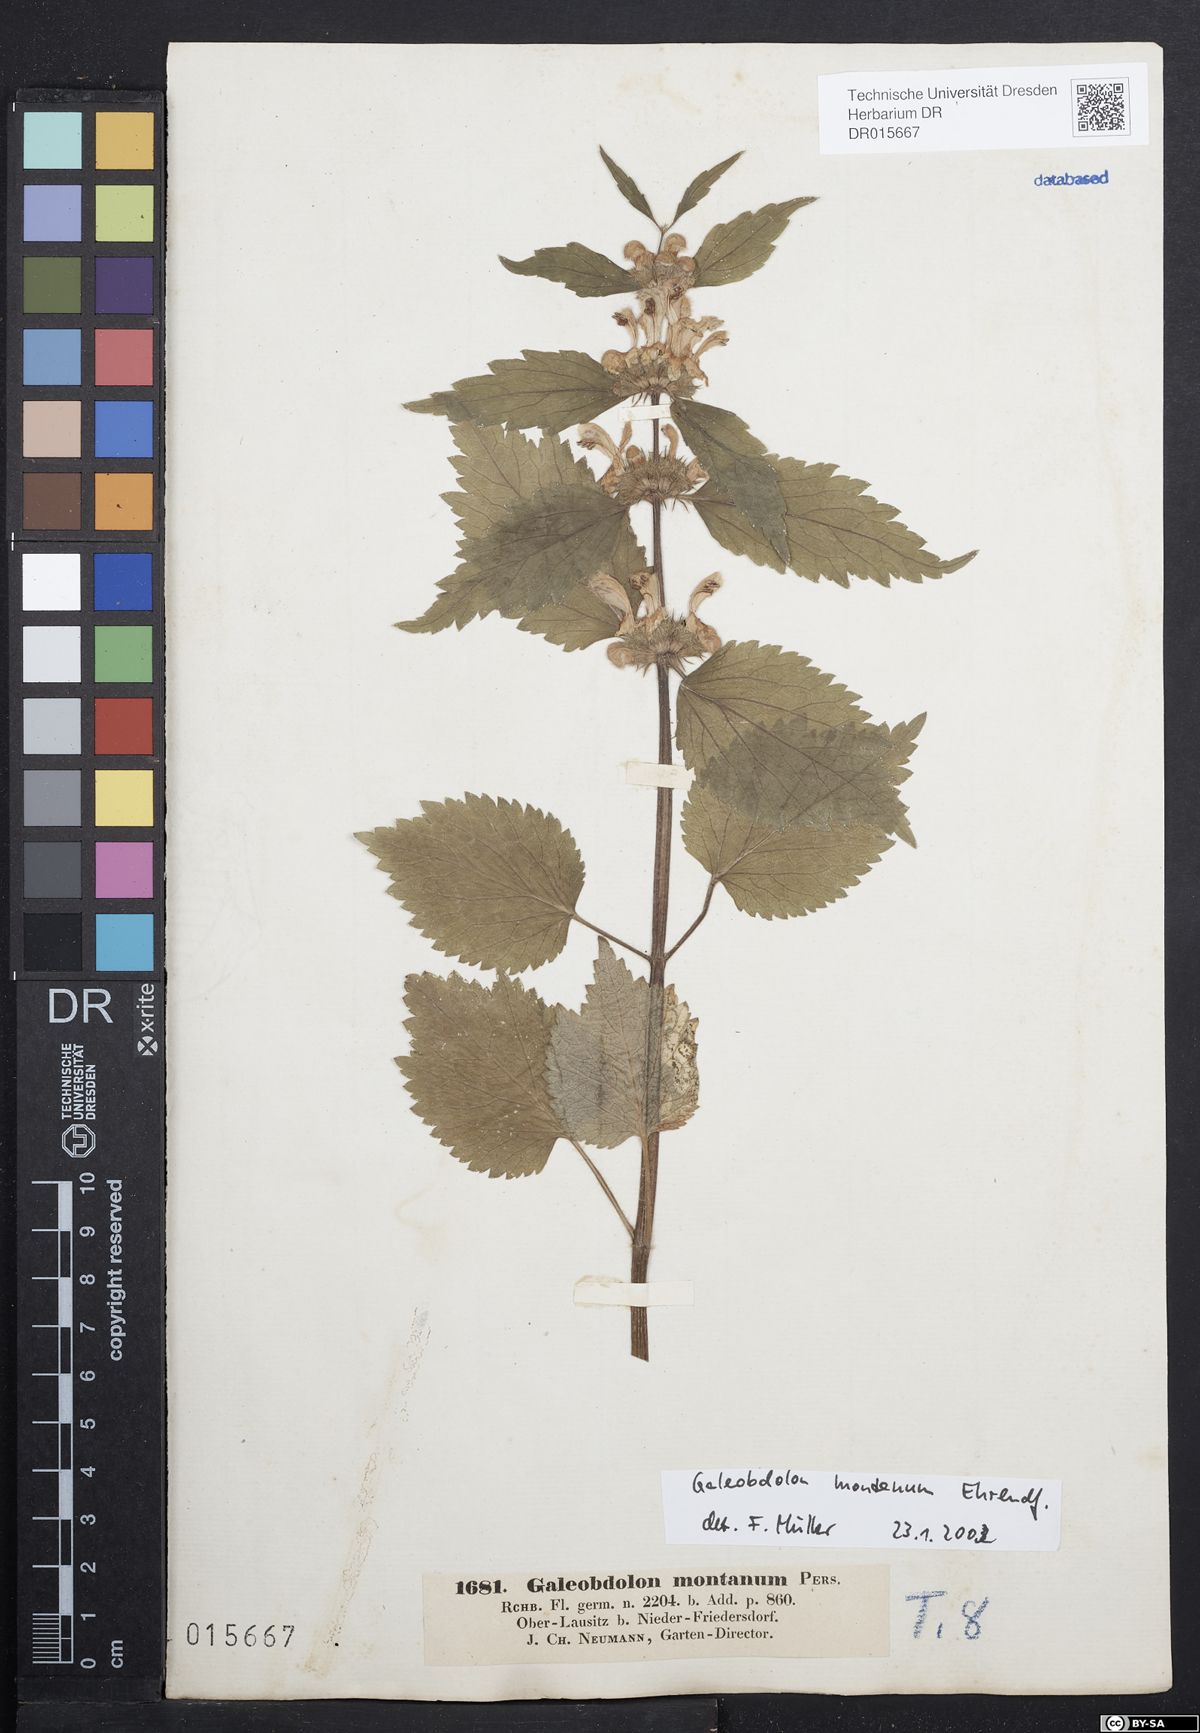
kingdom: Plantae
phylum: Tracheophyta
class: Magnoliopsida
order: Lamiales
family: Lamiaceae
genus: Lamium
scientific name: Lamium galeobdolon
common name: Yellow archangel
